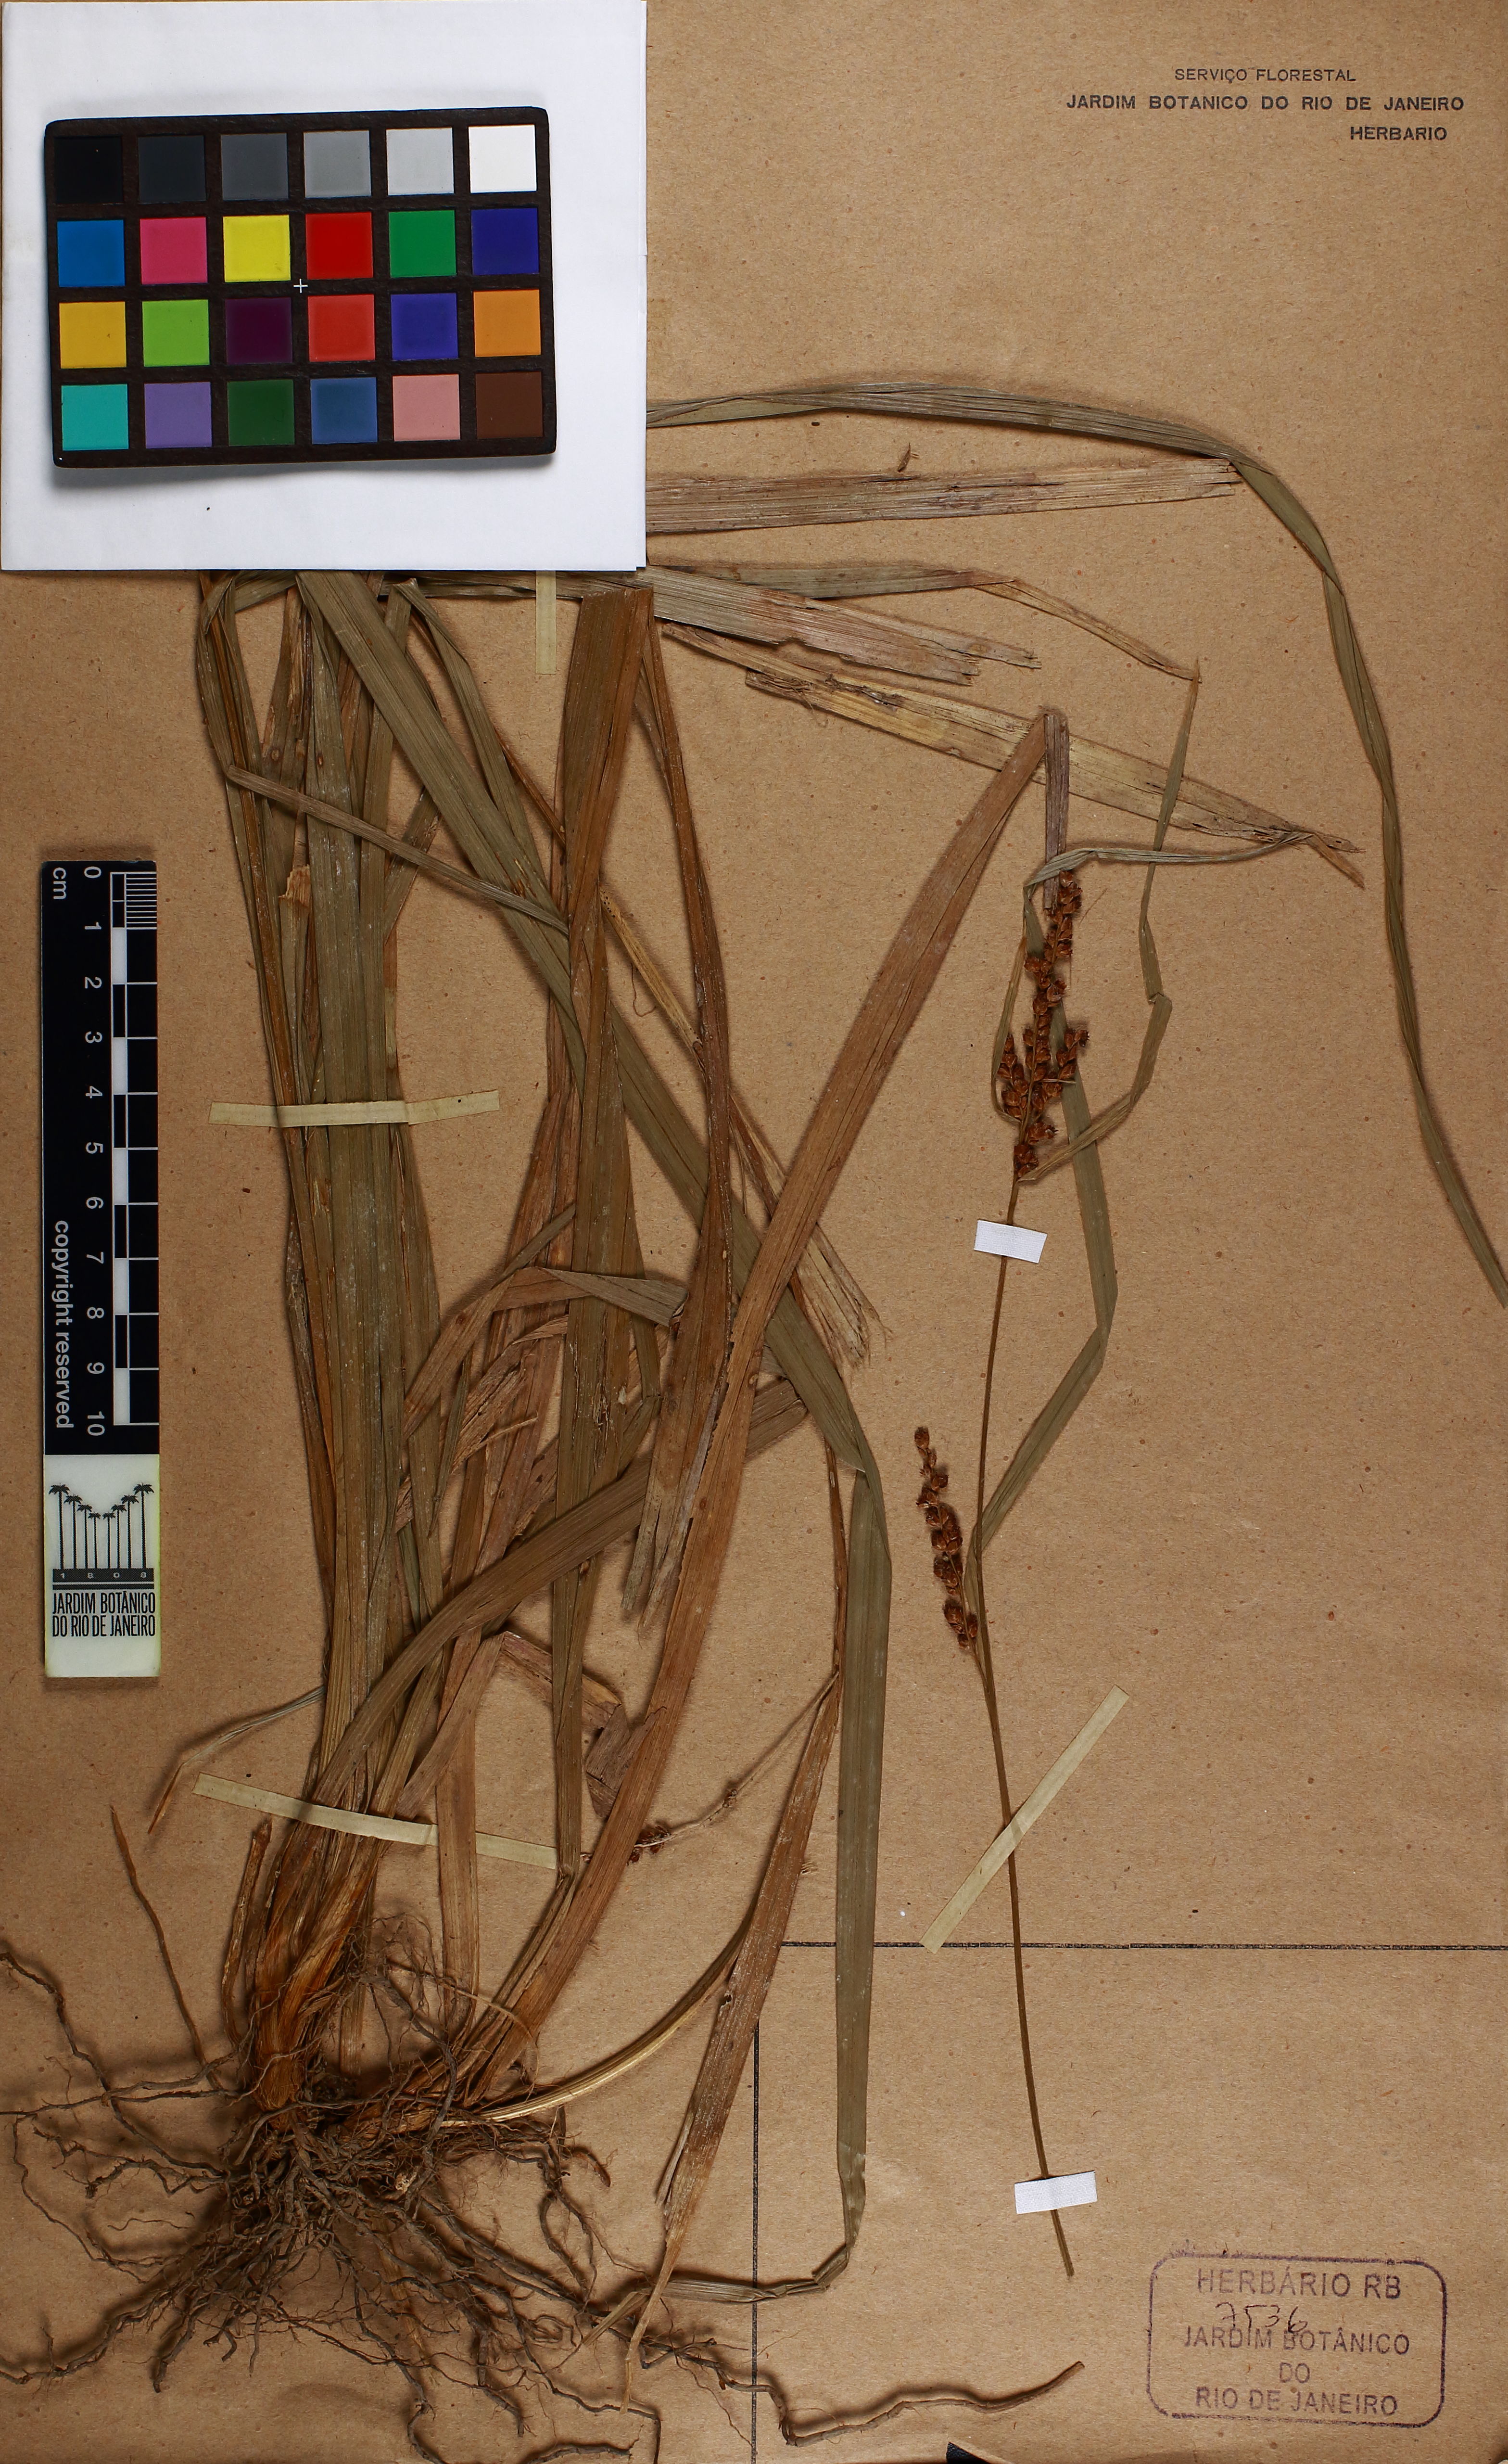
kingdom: Plantae
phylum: Tracheophyta
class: Liliopsida
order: Poales
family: Cyperaceae
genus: Rhynchospora
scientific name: Rhynchospora panicoides
